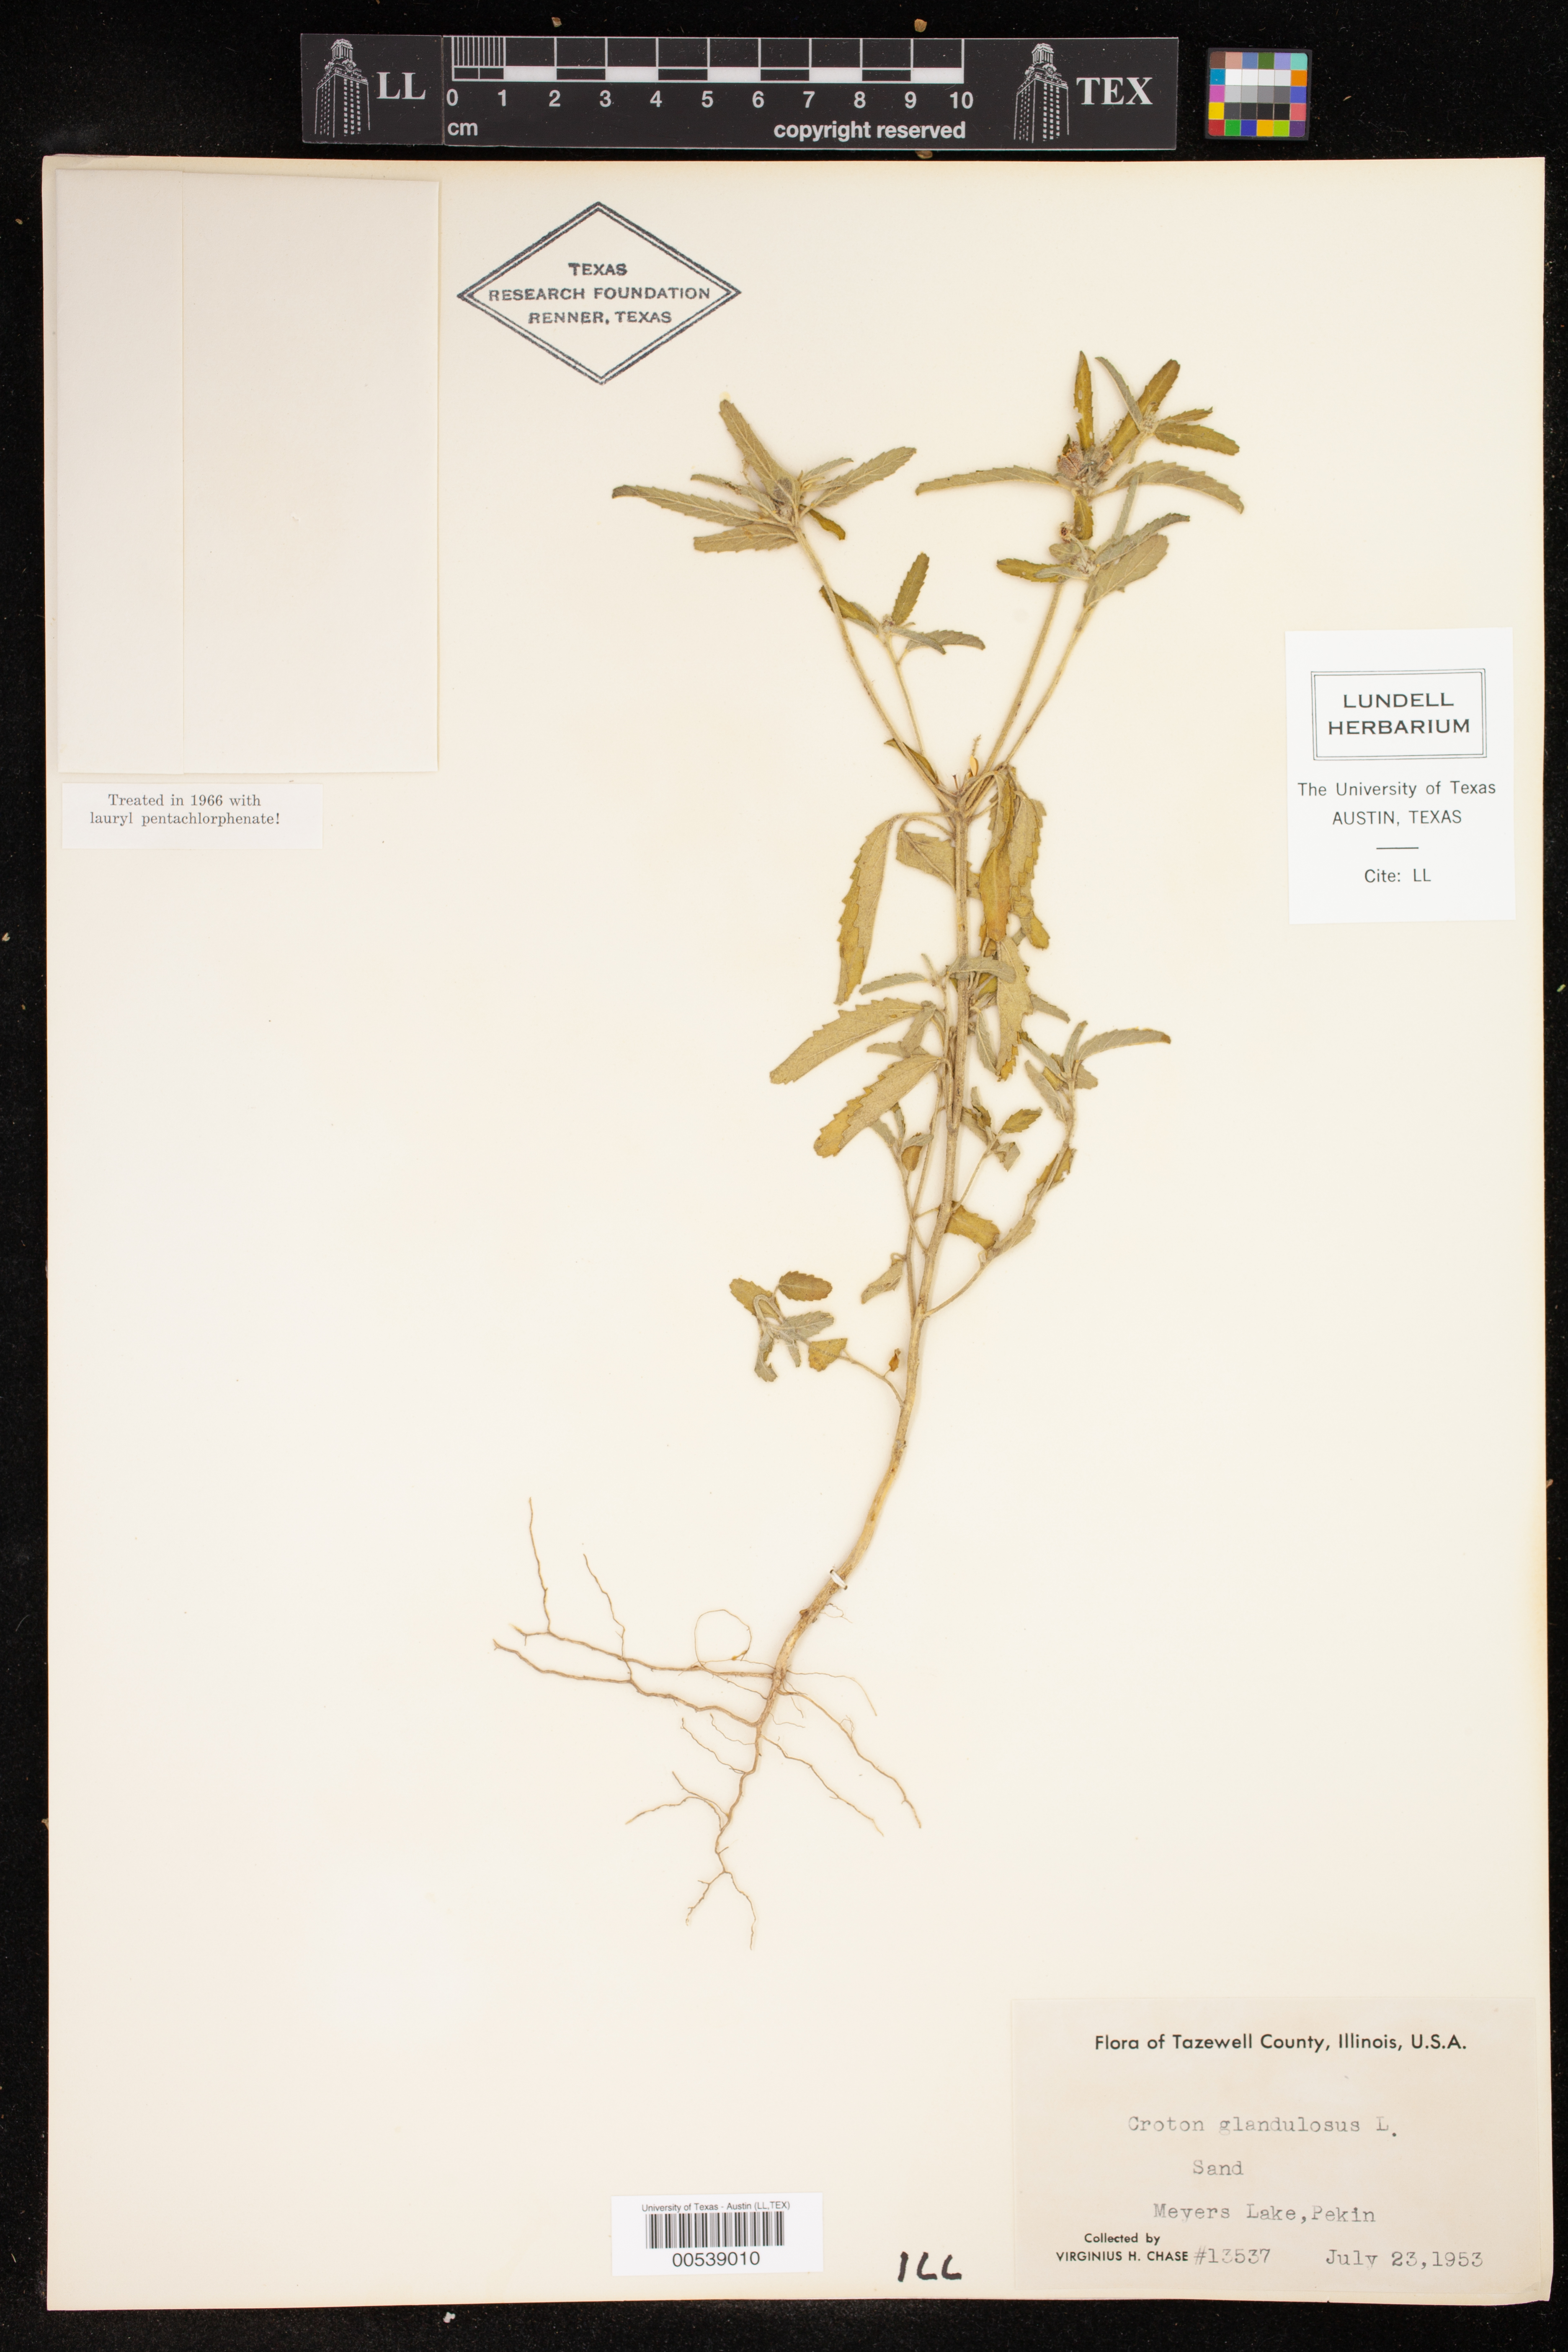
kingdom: Plantae
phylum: Tracheophyta
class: Magnoliopsida
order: Malpighiales
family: Euphorbiaceae
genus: Croton
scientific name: Croton glandulosus
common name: Tropic croton
